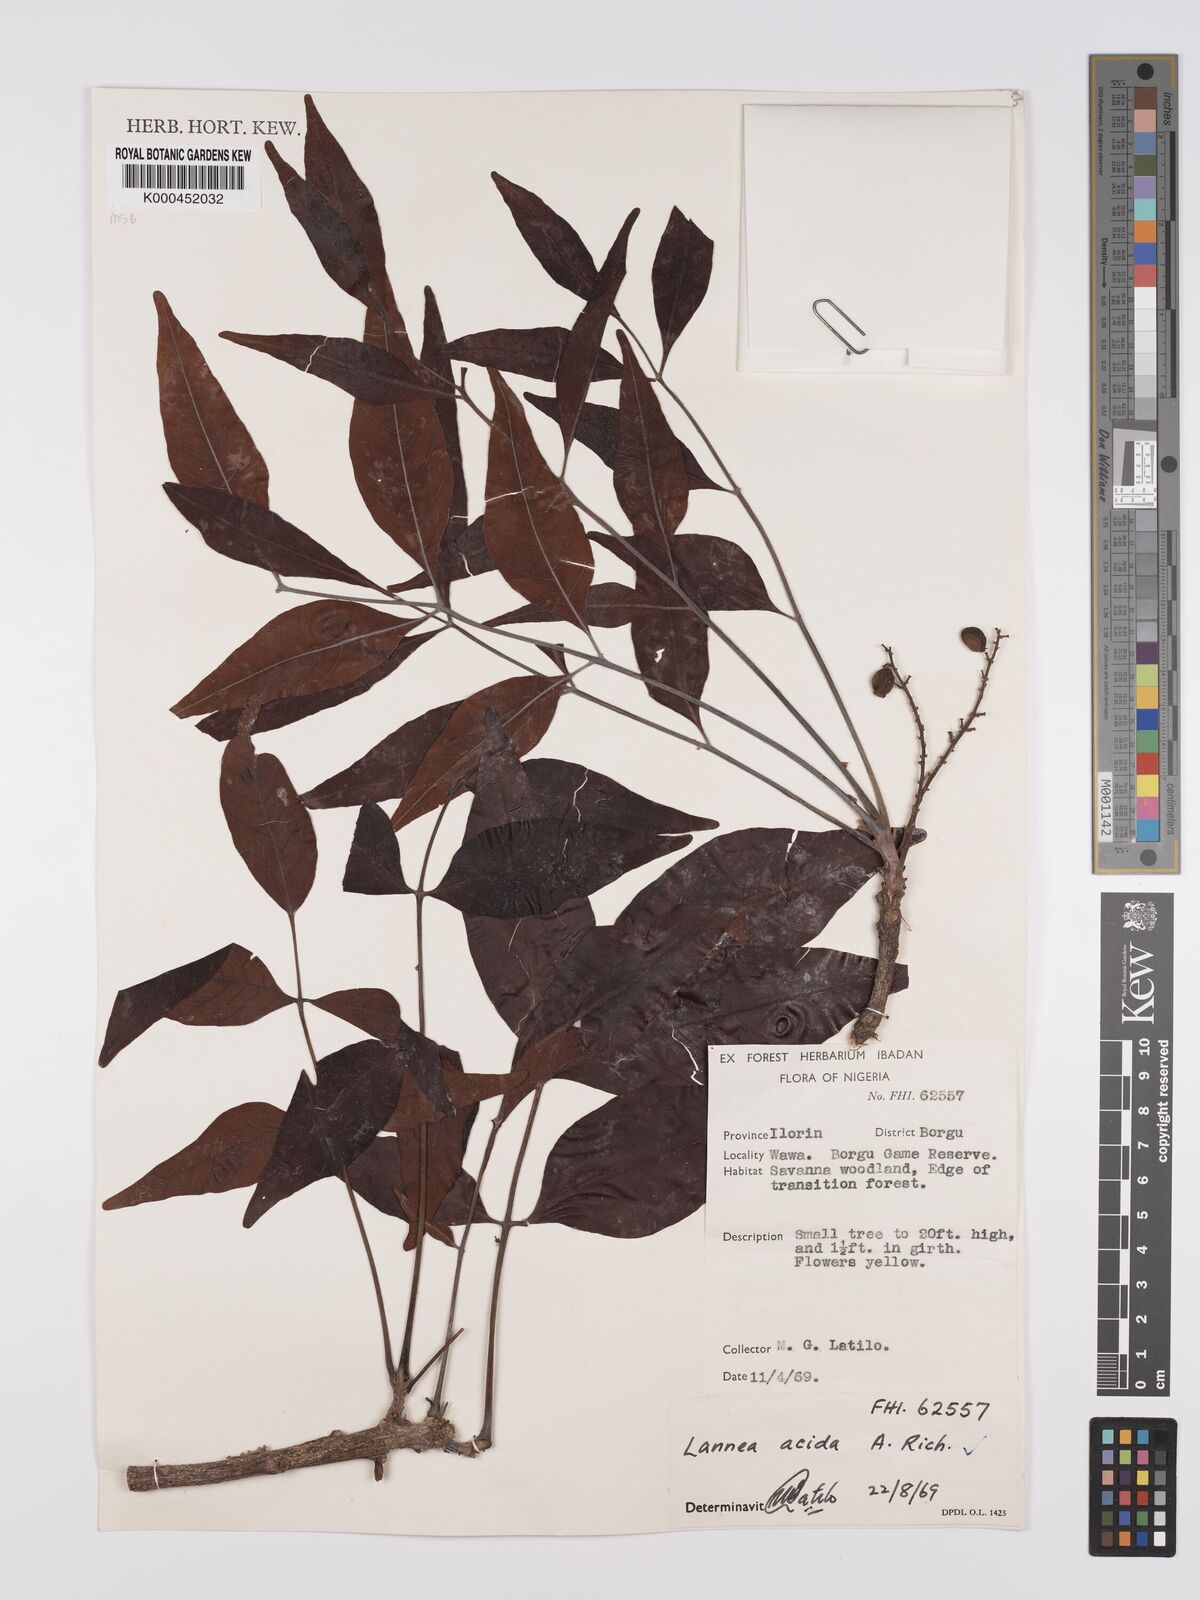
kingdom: Plantae
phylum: Tracheophyta
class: Magnoliopsida
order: Sapindales
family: Anacardiaceae
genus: Lannea
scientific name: Lannea acida
